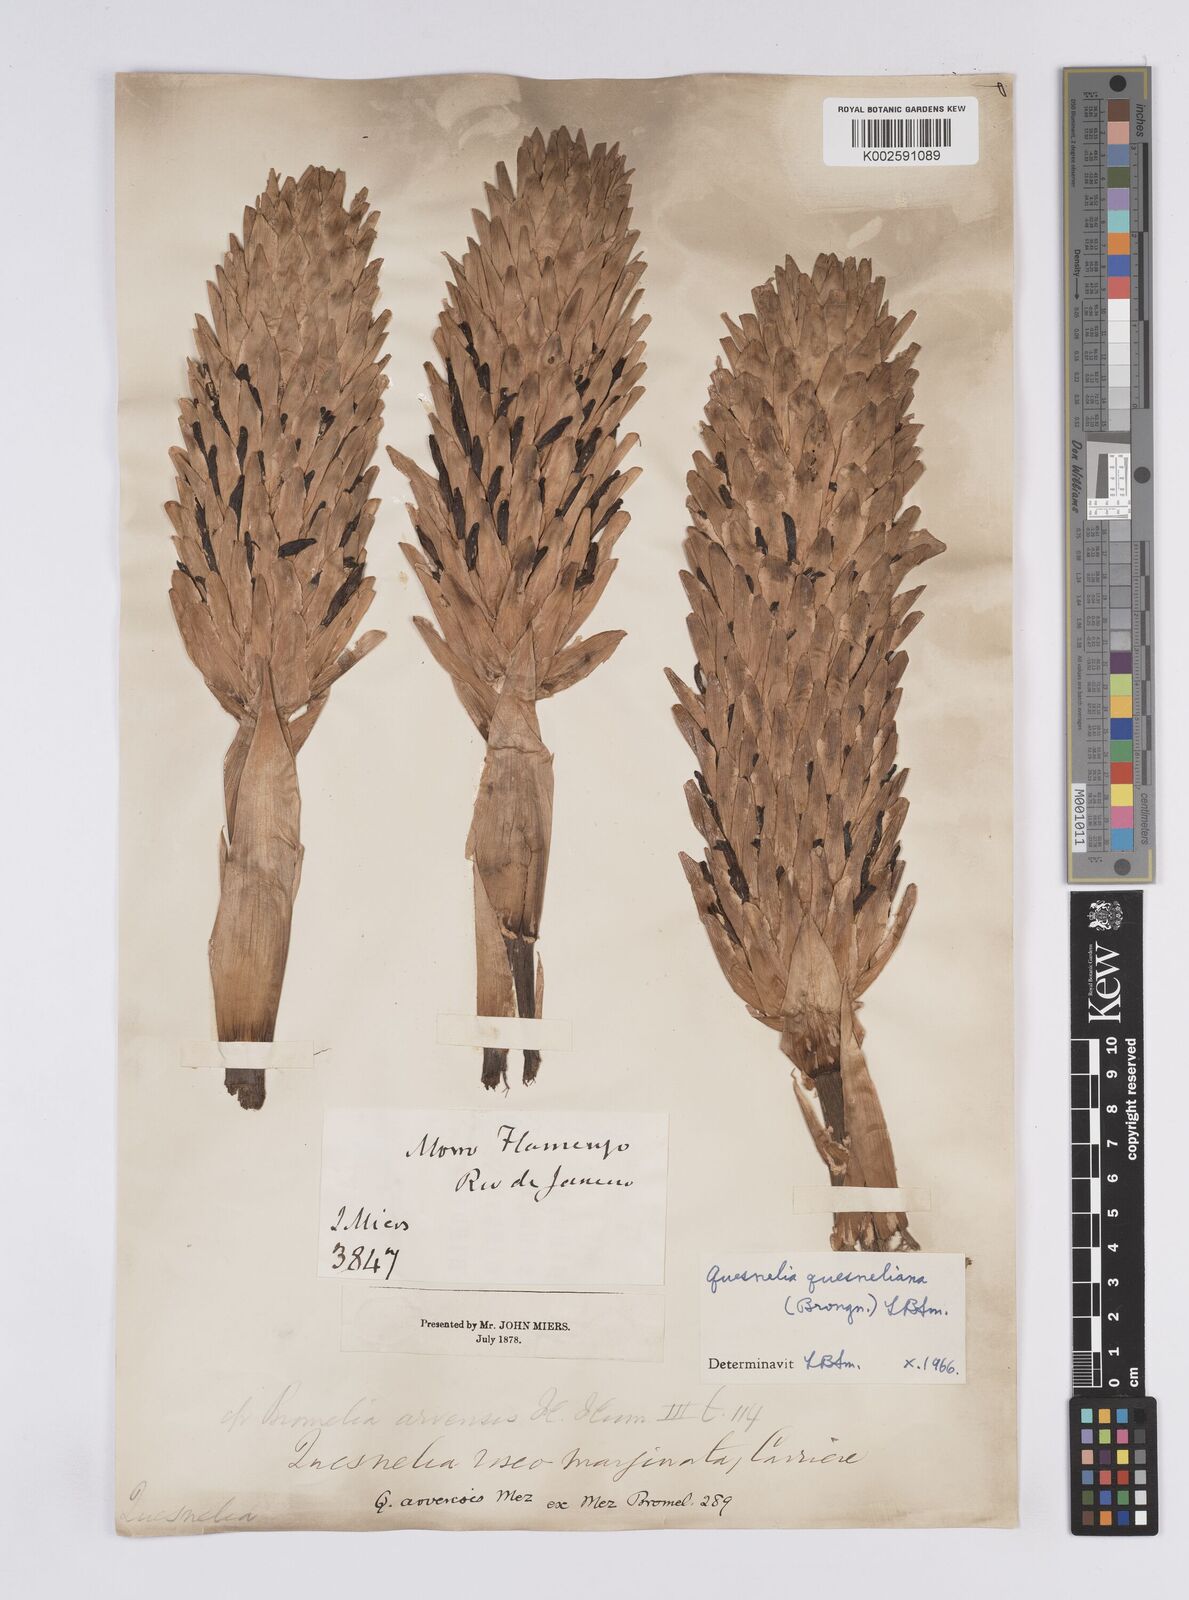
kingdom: Plantae
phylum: Tracheophyta
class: Liliopsida
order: Poales
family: Bromeliaceae
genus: Quesnelia
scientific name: Quesnelia quesneliana
